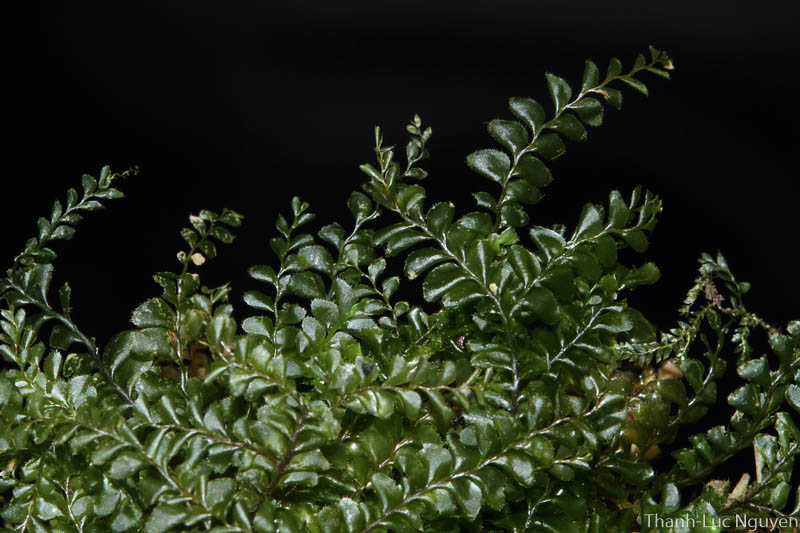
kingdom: Plantae
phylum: Marchantiophyta
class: Jungermanniopsida
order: Jungermanniales
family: Plagiochilaceae
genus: Plagiochila
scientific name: Plagiochila
